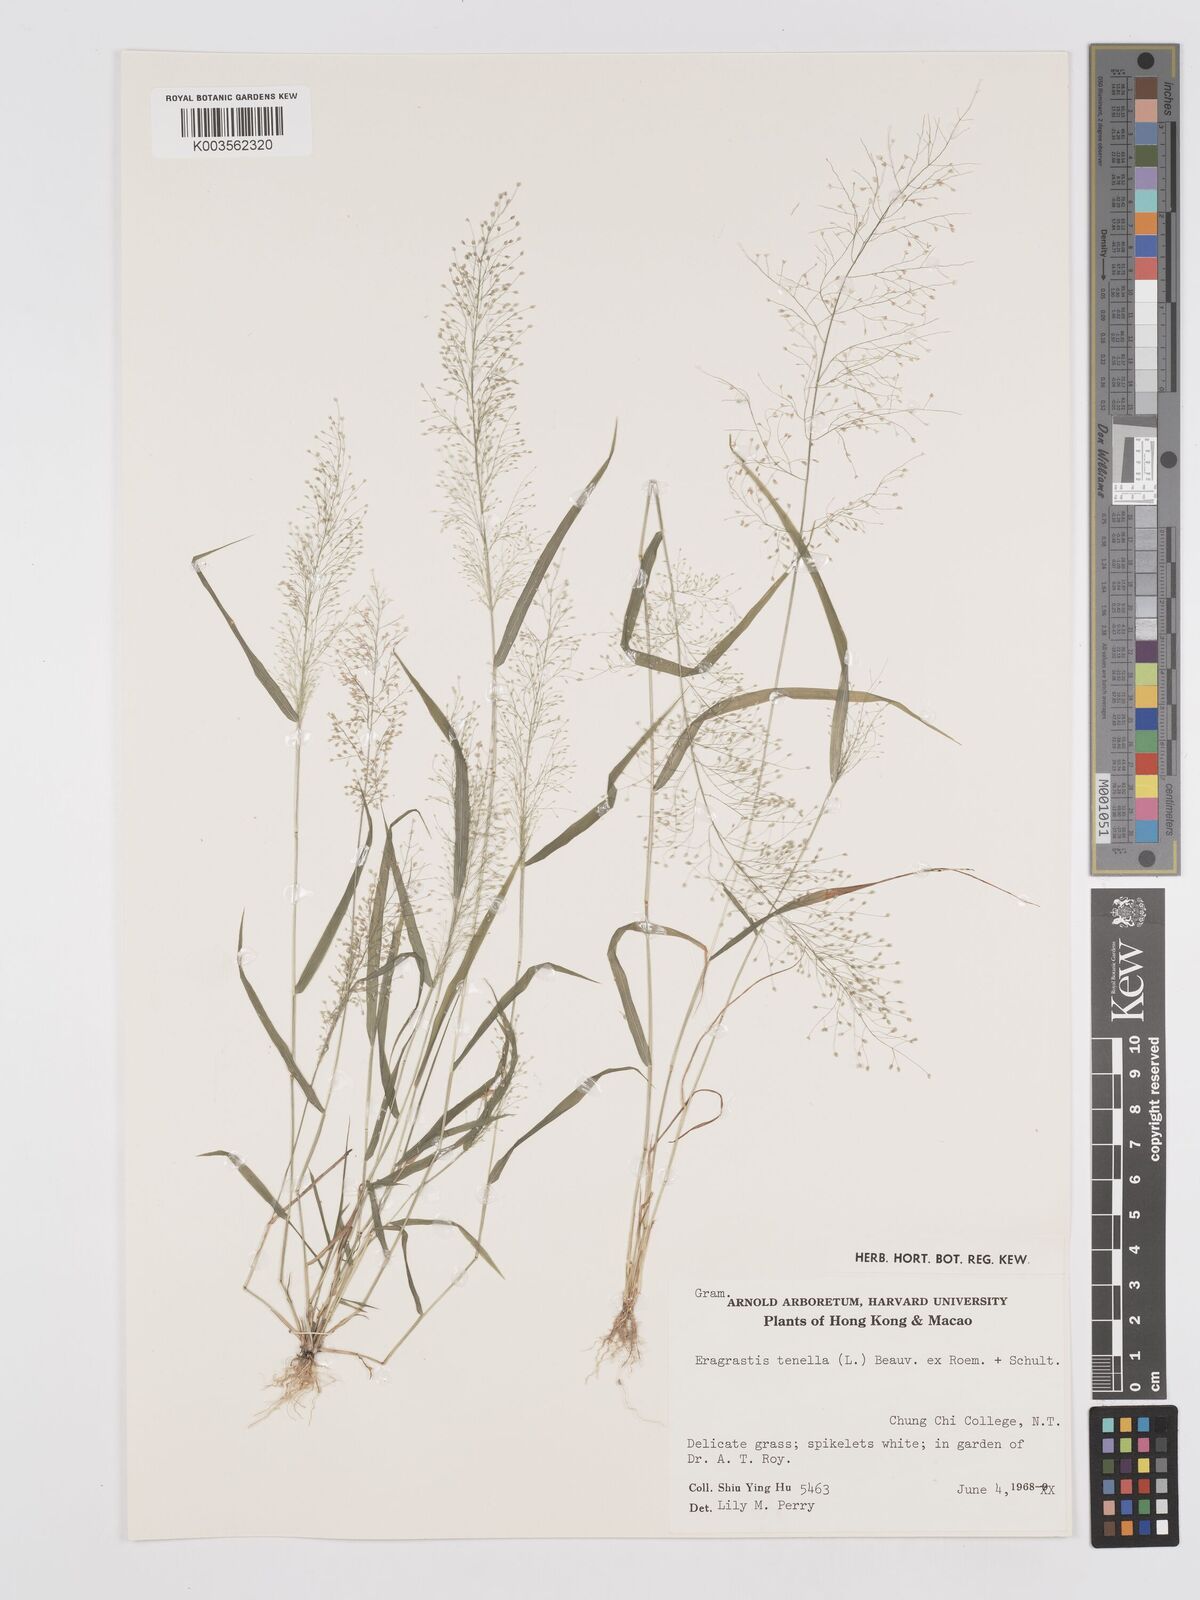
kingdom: Plantae
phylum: Tracheophyta
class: Liliopsida
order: Poales
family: Poaceae
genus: Eragrostis
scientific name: Eragrostis tenella
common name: Japanese lovegrass
